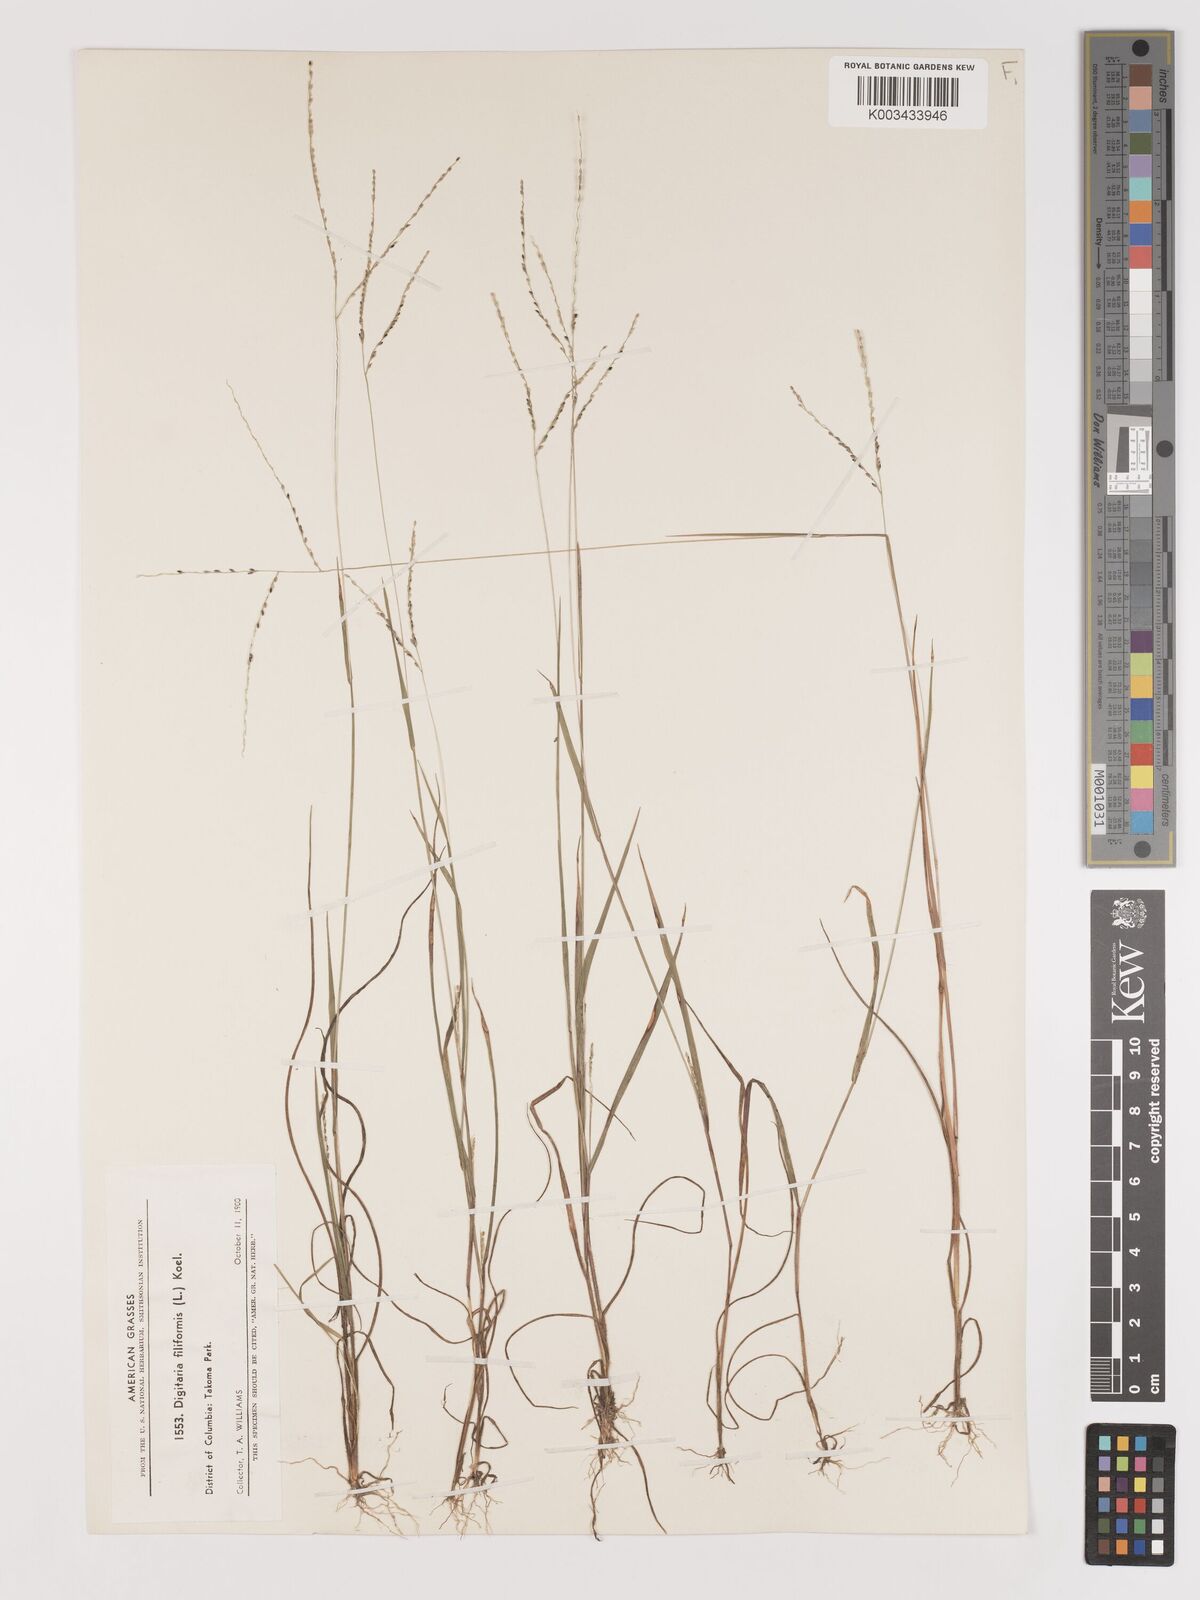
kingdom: Plantae
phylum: Tracheophyta
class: Liliopsida
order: Poales
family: Poaceae
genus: Digitaria
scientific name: Digitaria filiformis
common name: Slender crabgrass
